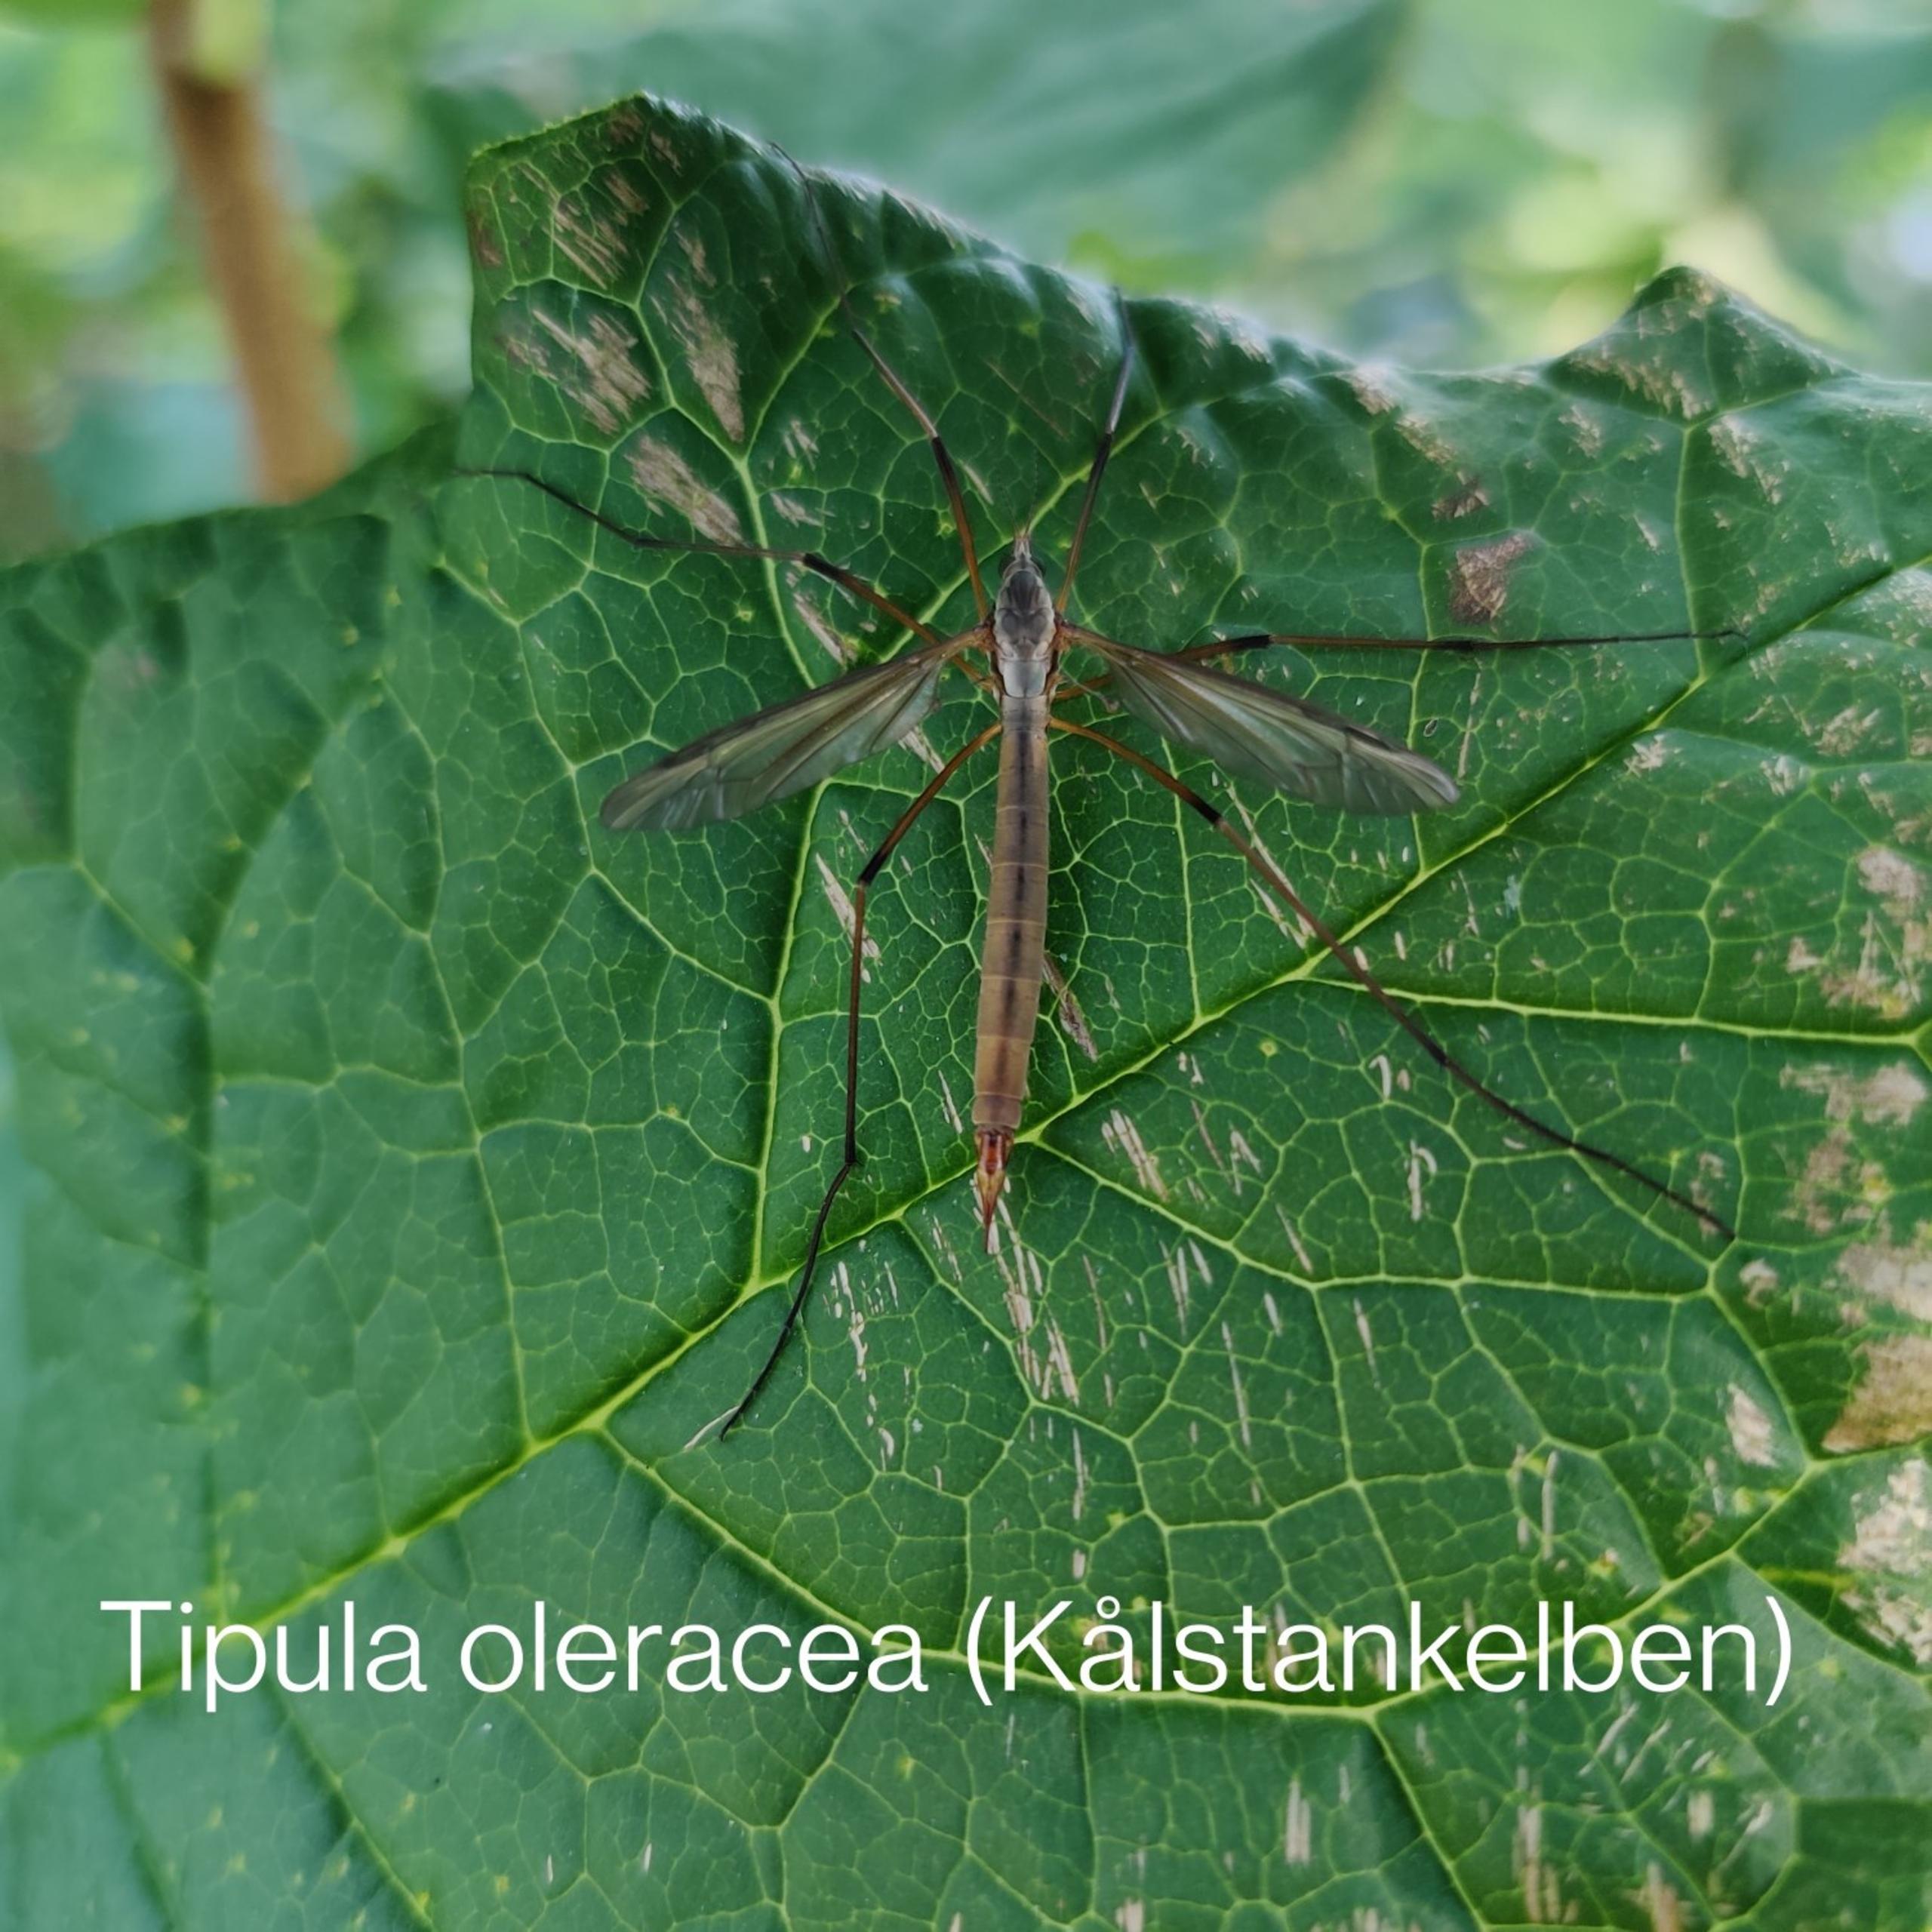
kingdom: Animalia
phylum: Arthropoda
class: Insecta
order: Diptera
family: Tipulidae
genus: Tipula
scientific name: Tipula paludosa
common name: Mosestankelben
